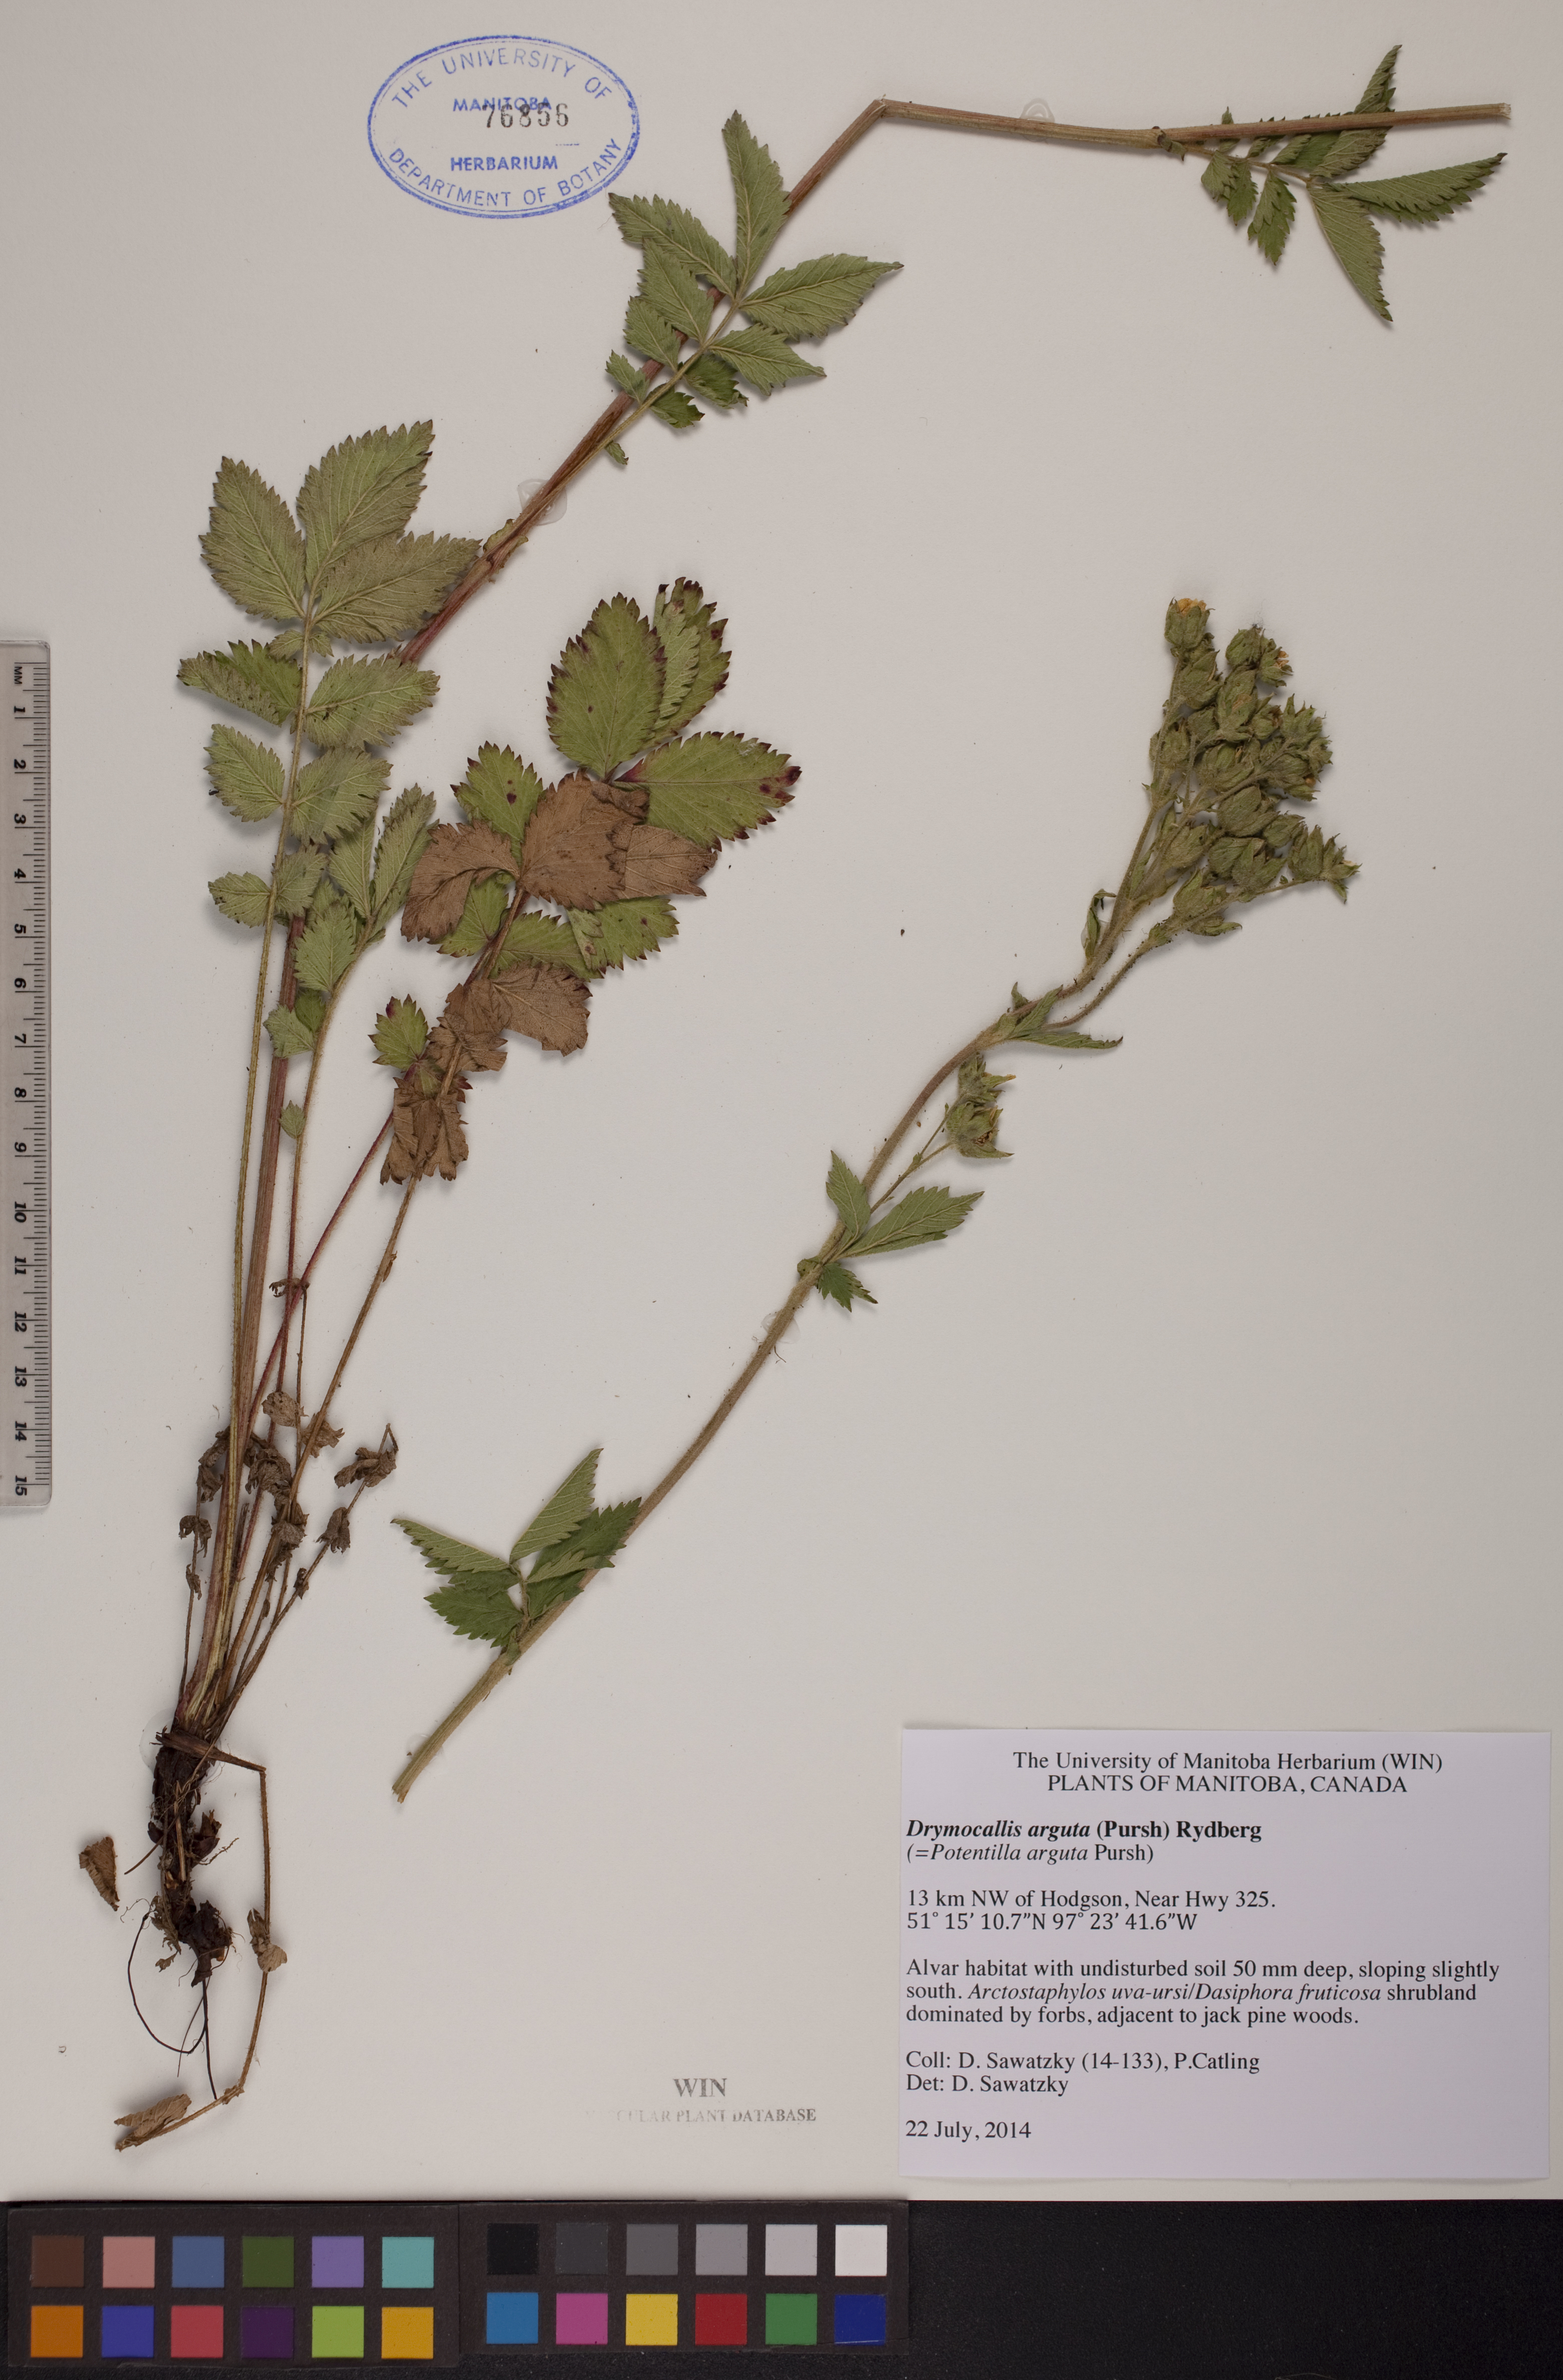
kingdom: Plantae
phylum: Tracheophyta
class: Magnoliopsida
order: Rosales
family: Rosaceae
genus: Drymocallis
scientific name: Drymocallis arguta
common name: Tall cinquefoil
